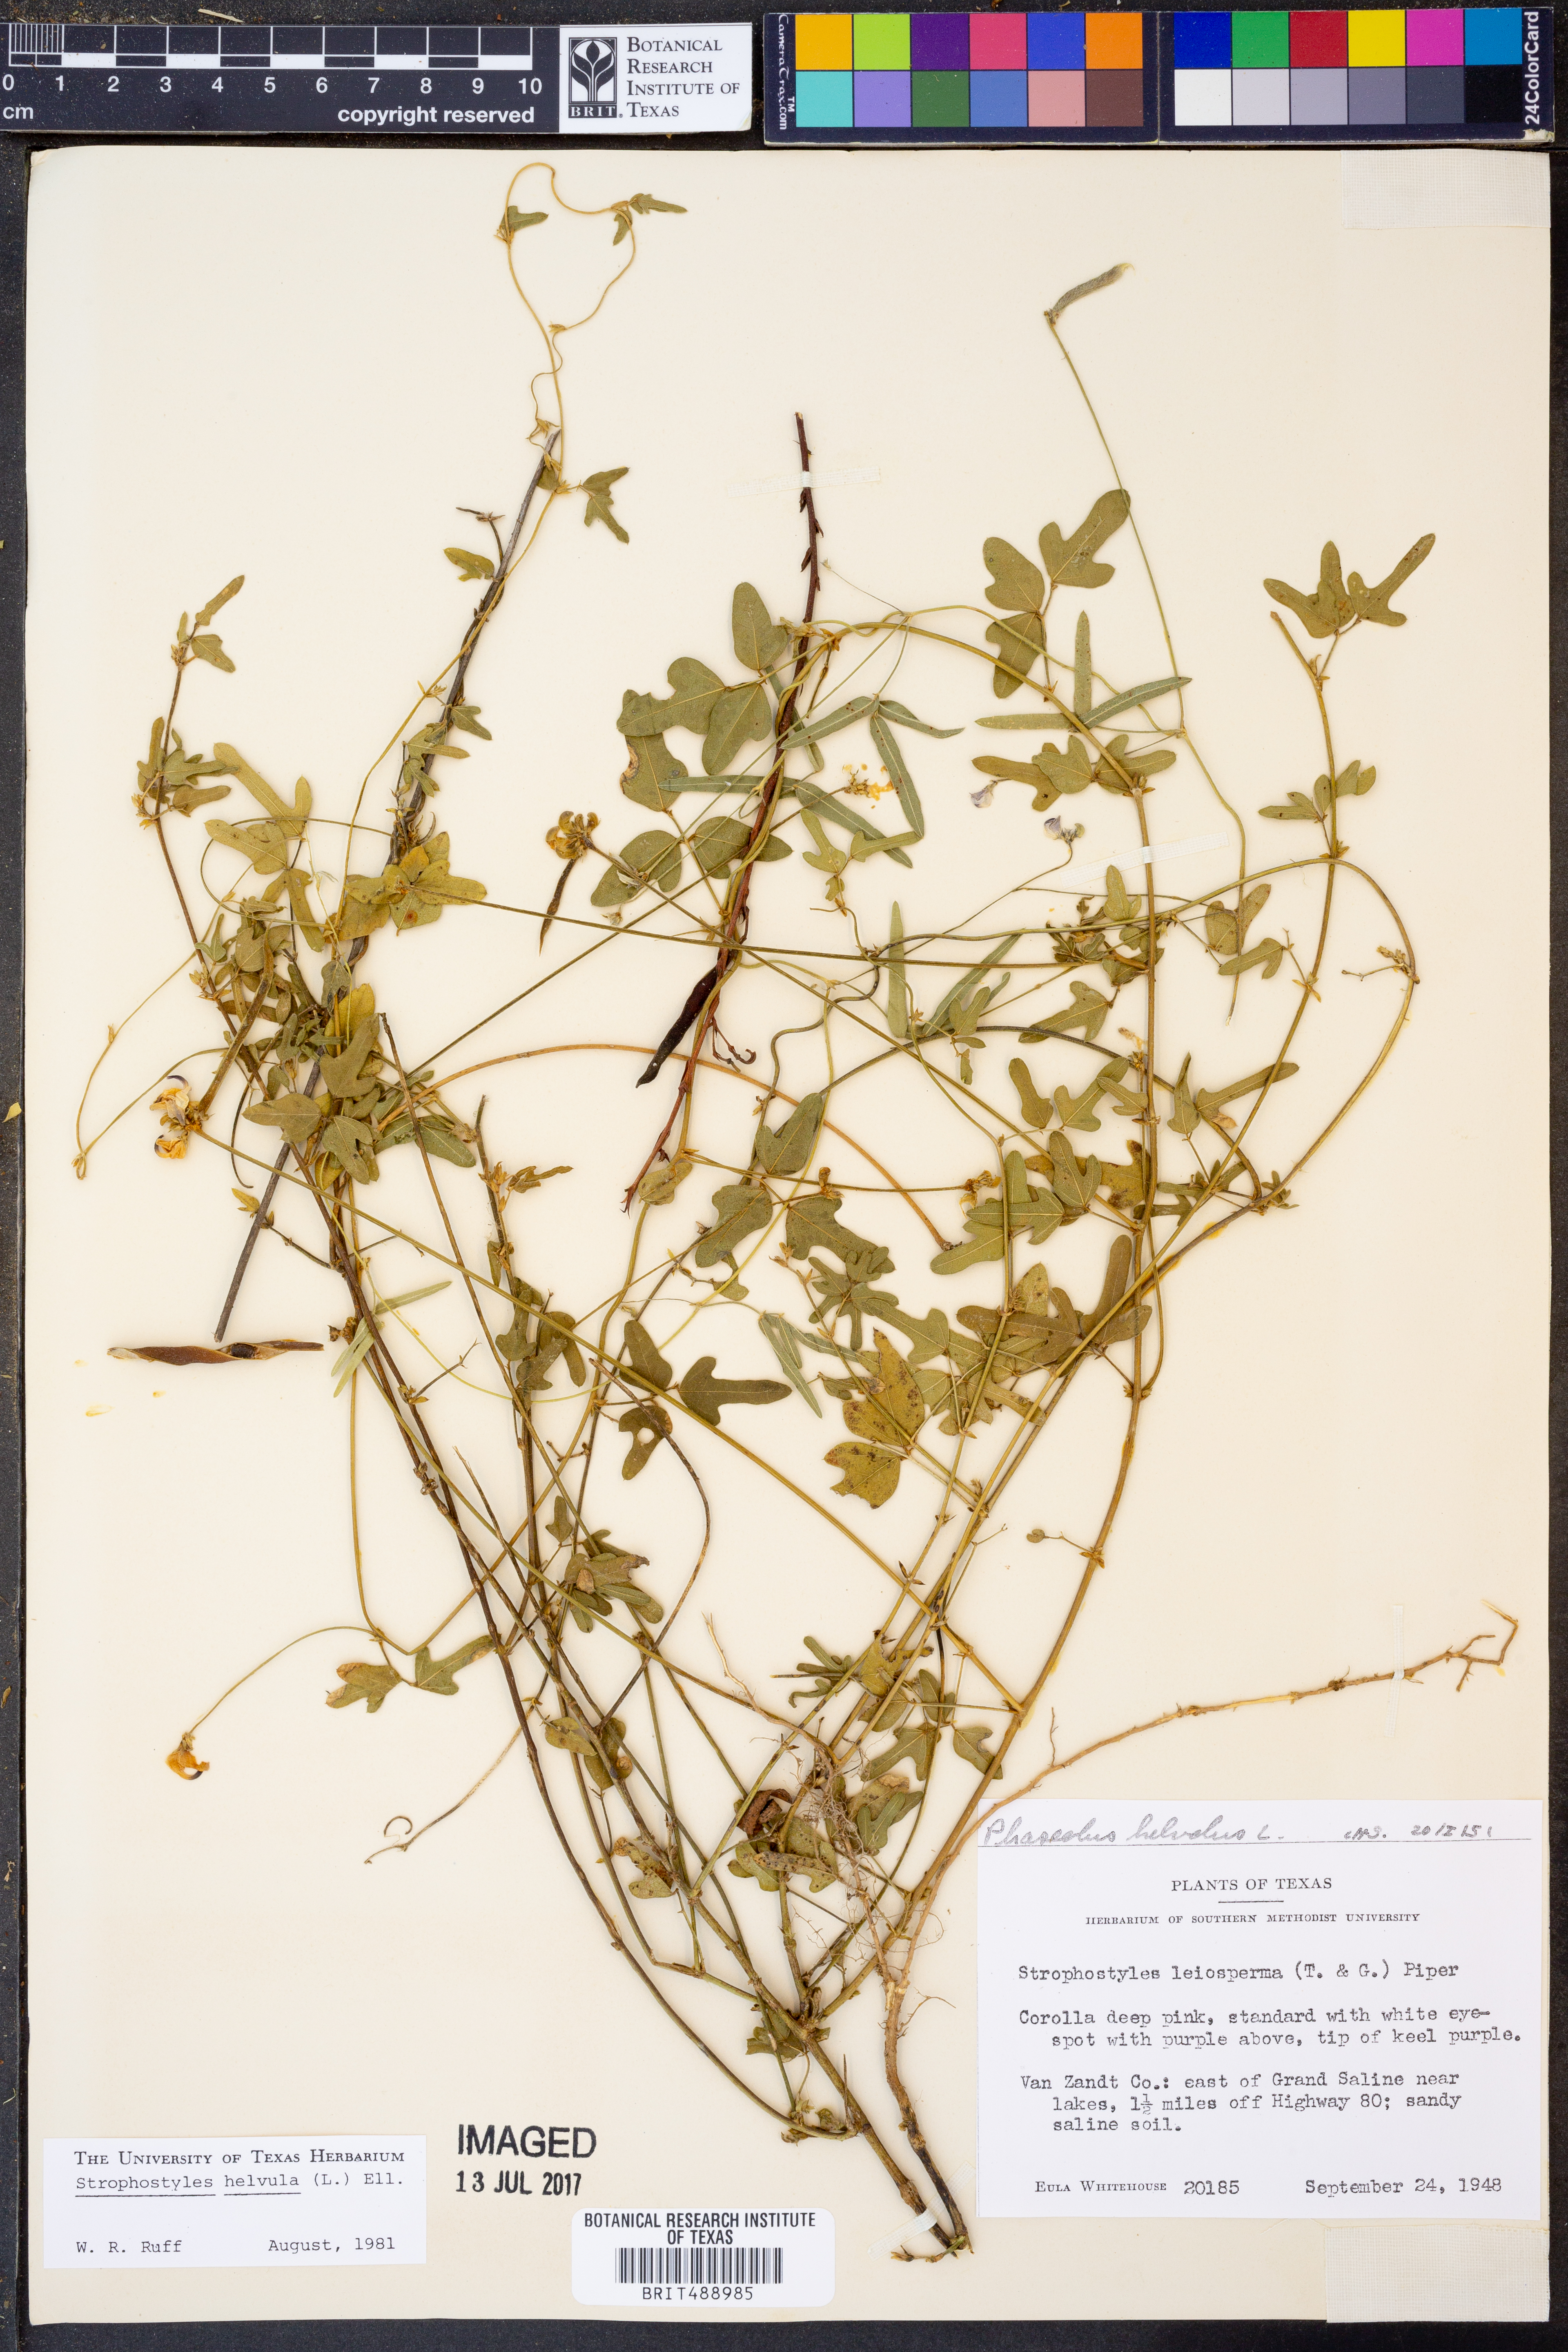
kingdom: Plantae
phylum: Tracheophyta
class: Magnoliopsida
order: Fabales
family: Fabaceae
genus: Strophostyles
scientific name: Strophostyles helvula
